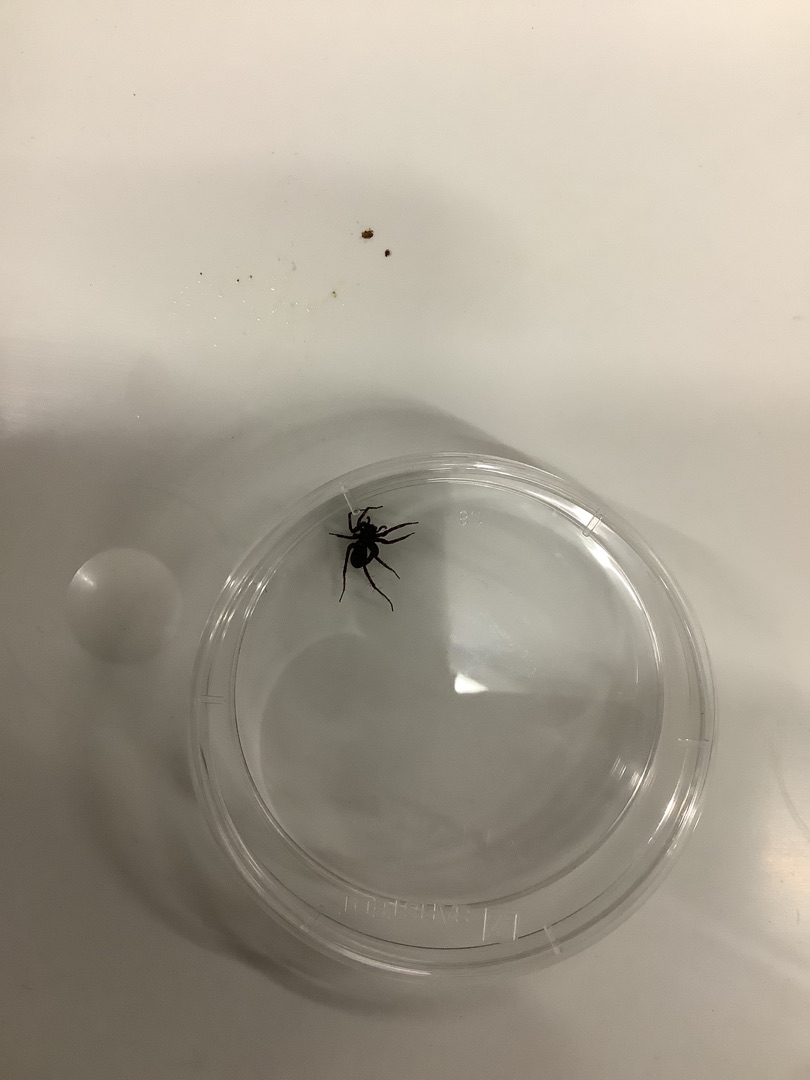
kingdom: Animalia
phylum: Arthropoda
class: Arachnida
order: Araneae
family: Lycosidae
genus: Pardosa
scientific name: Pardosa
